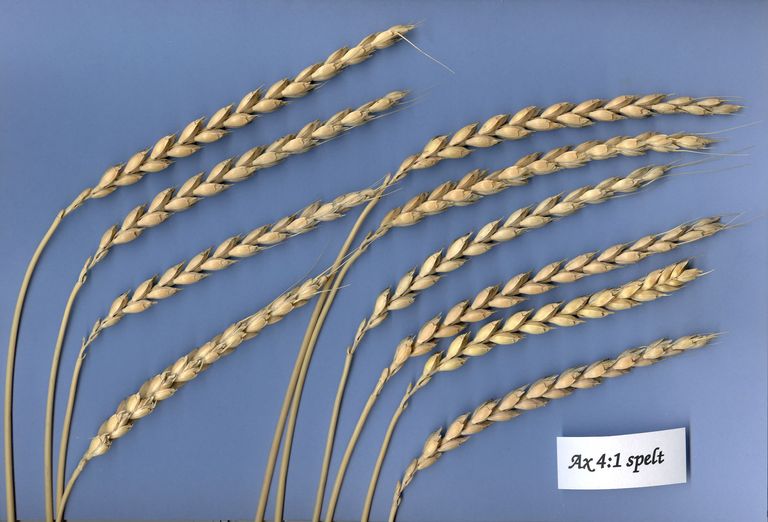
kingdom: Plantae
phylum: Tracheophyta
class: Liliopsida
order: Poales
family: Poaceae
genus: Triticum
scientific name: Triticum aestivum
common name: Common wheat
